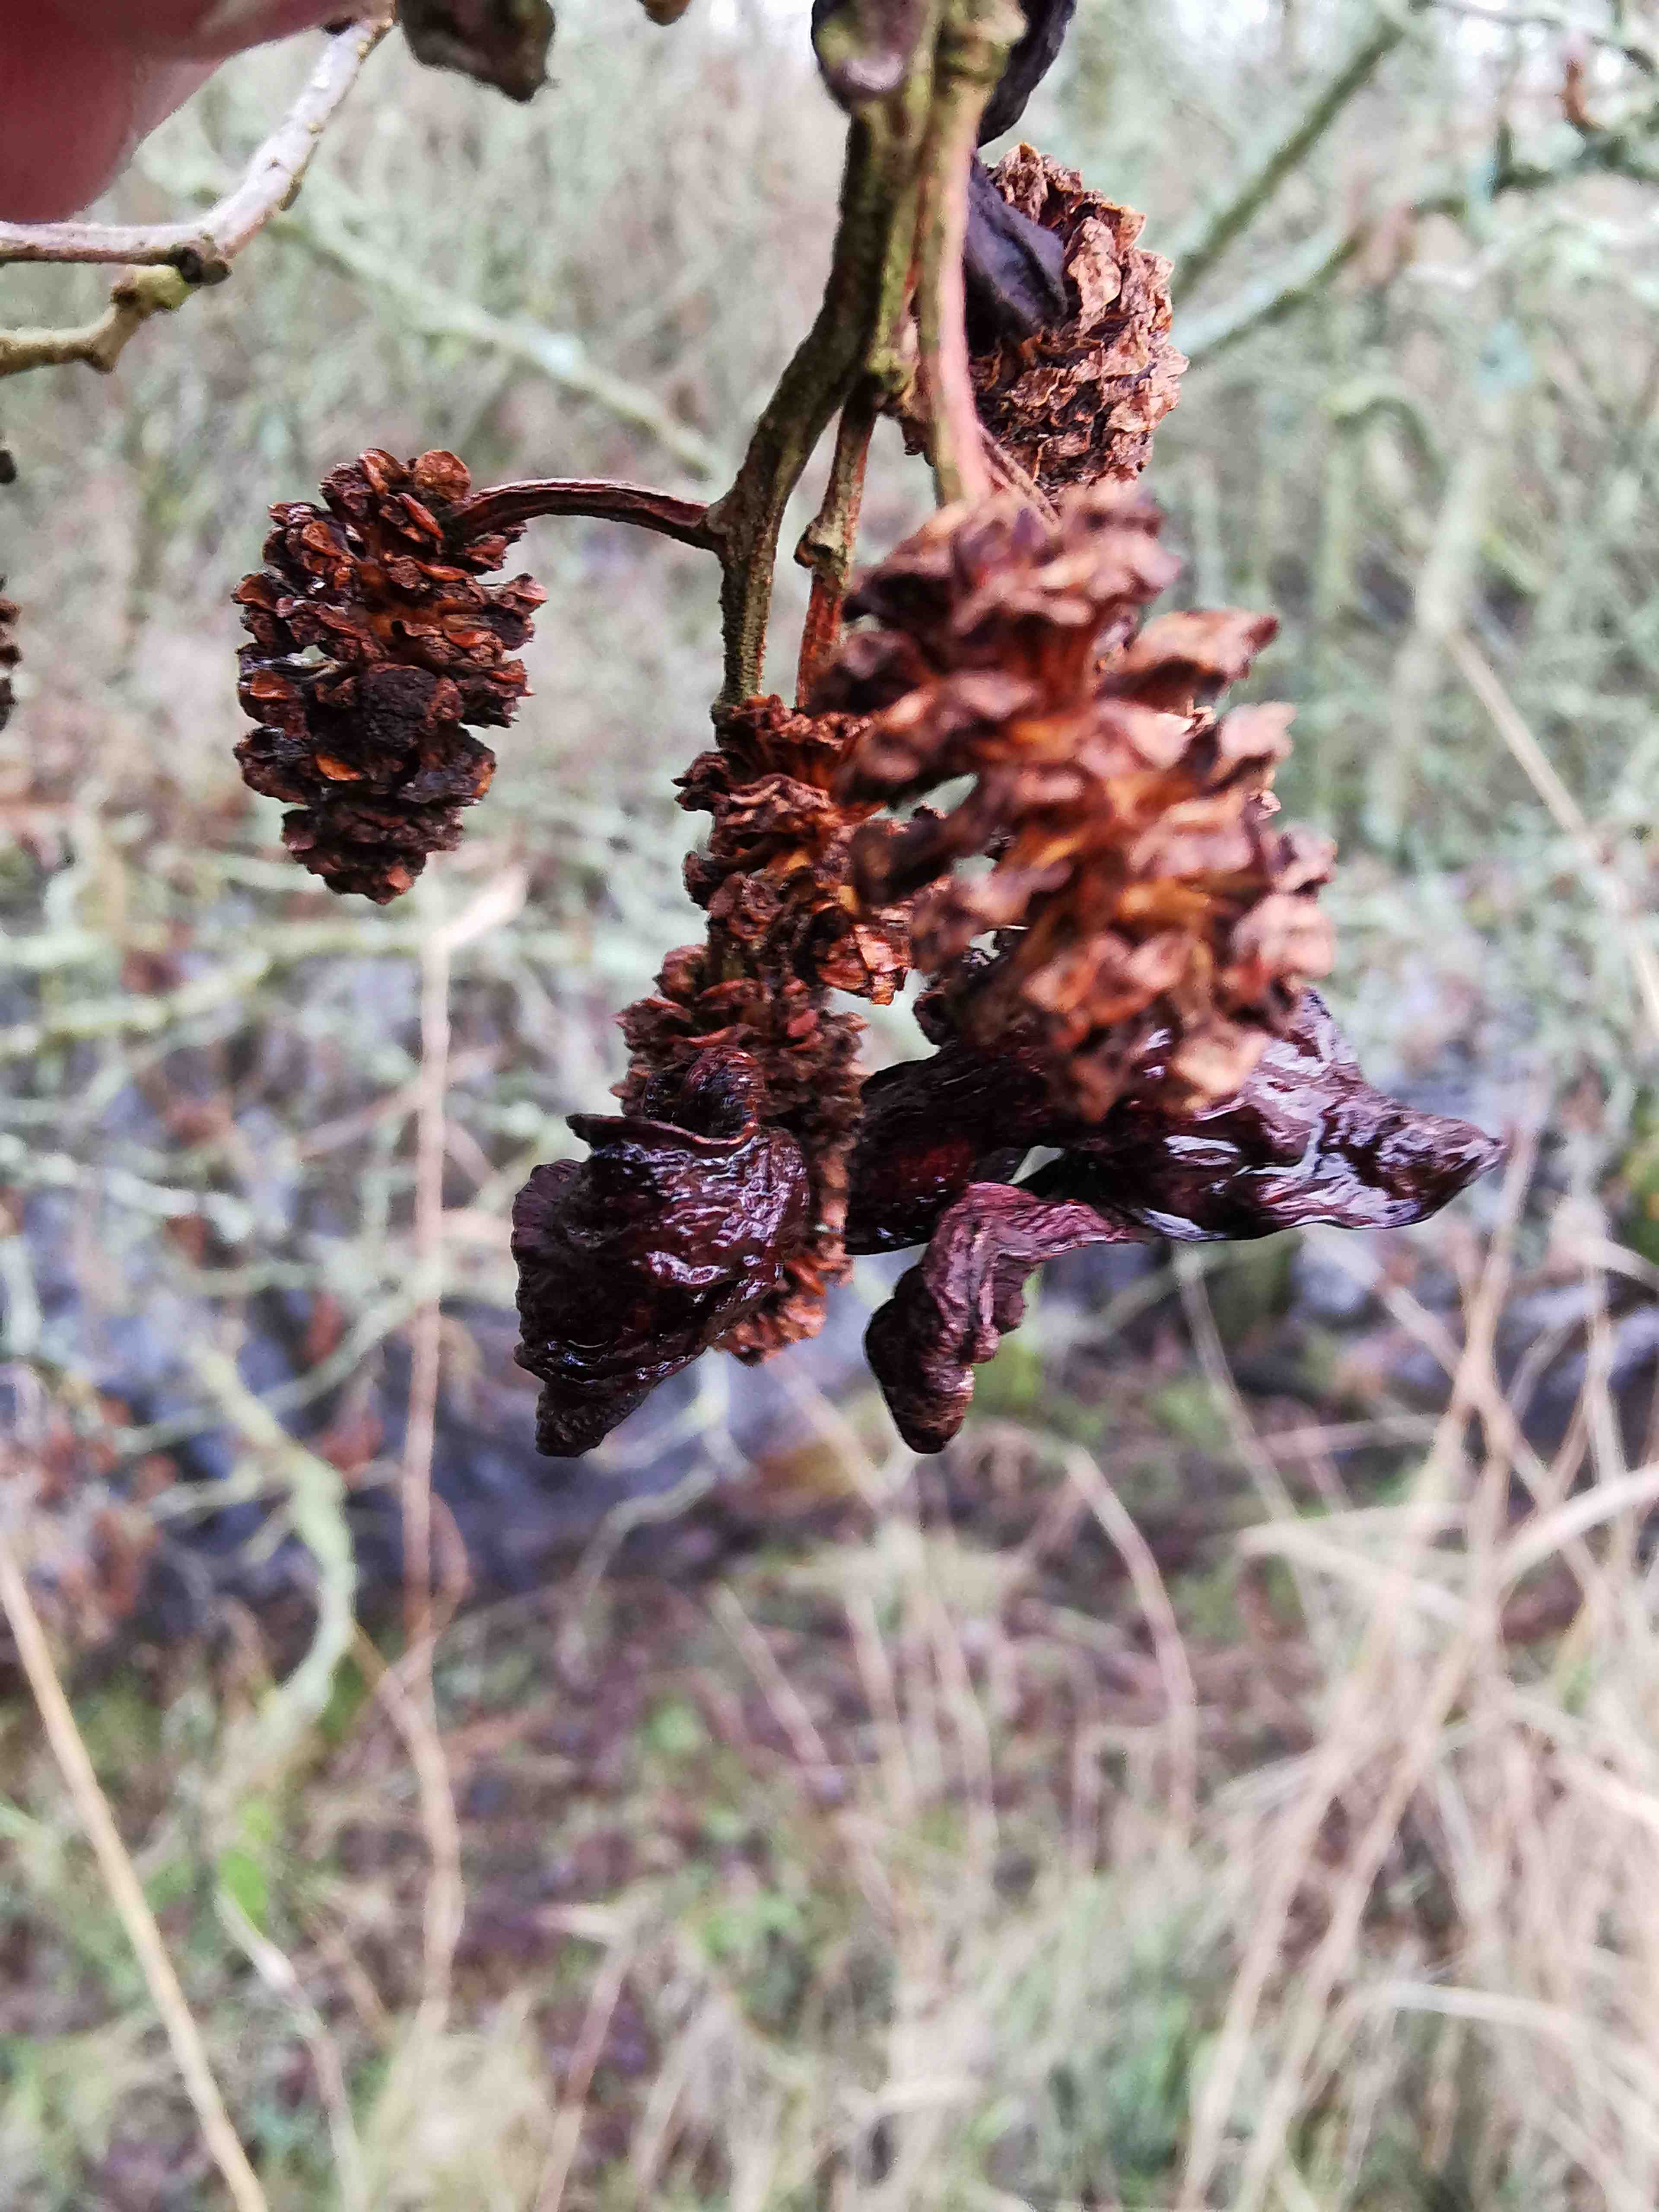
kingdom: Fungi
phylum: Ascomycota
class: Taphrinomycetes
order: Taphrinales
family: Taphrinaceae
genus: Taphrina
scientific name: Taphrina alni
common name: Alder tongue
